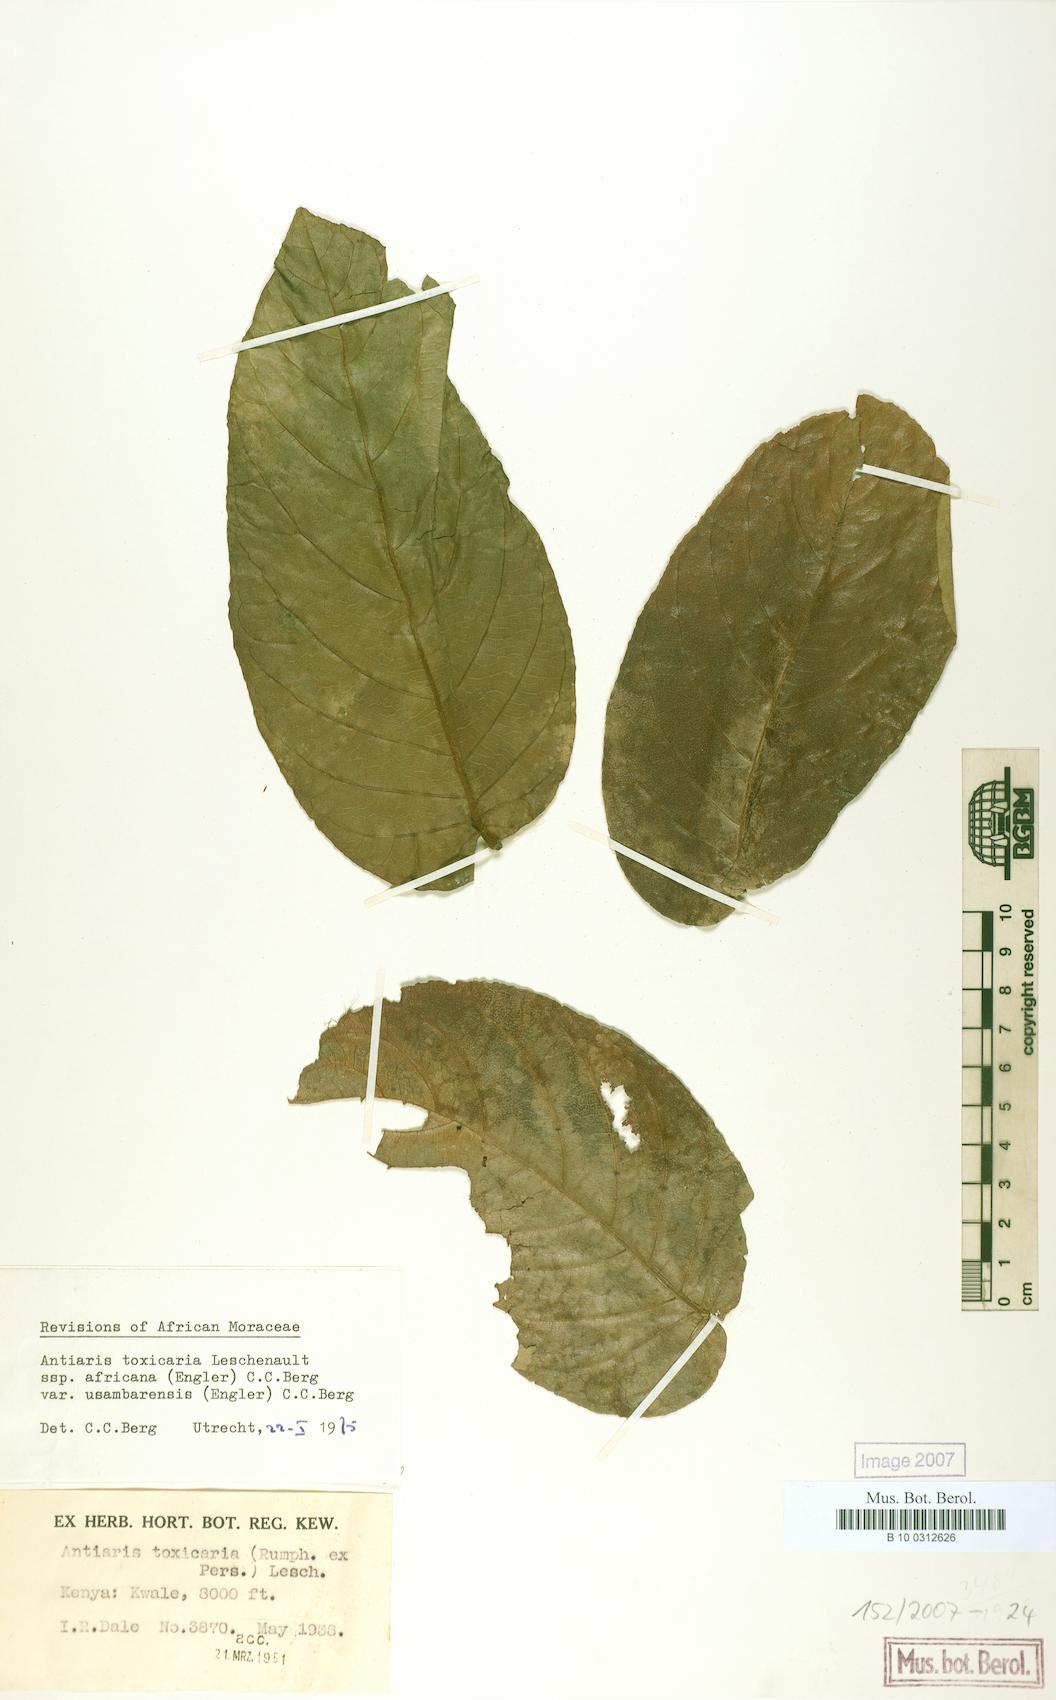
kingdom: Plantae
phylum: Tracheophyta
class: Magnoliopsida
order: Rosales
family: Moraceae
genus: Antiaris
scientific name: Antiaris toxicaria
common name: Sackingtree
